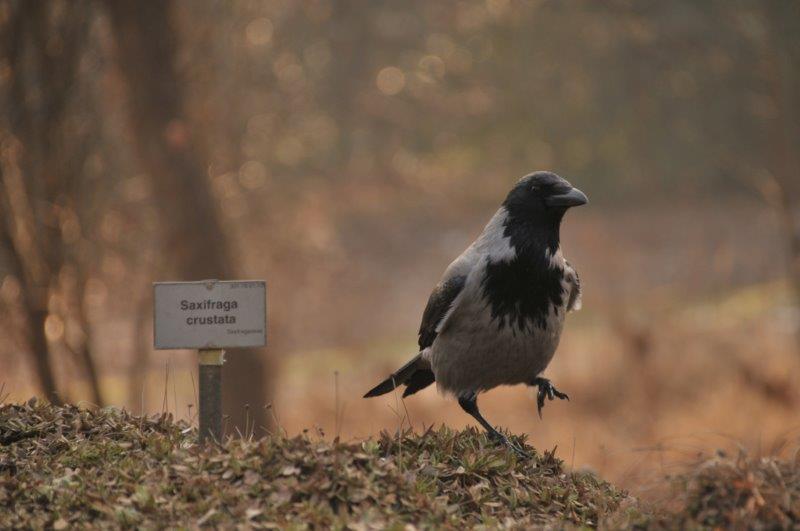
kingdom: Animalia
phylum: Chordata
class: Aves
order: Passeriformes
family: Corvidae
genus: Corvus
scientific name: Corvus cornix
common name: Hooded crow
